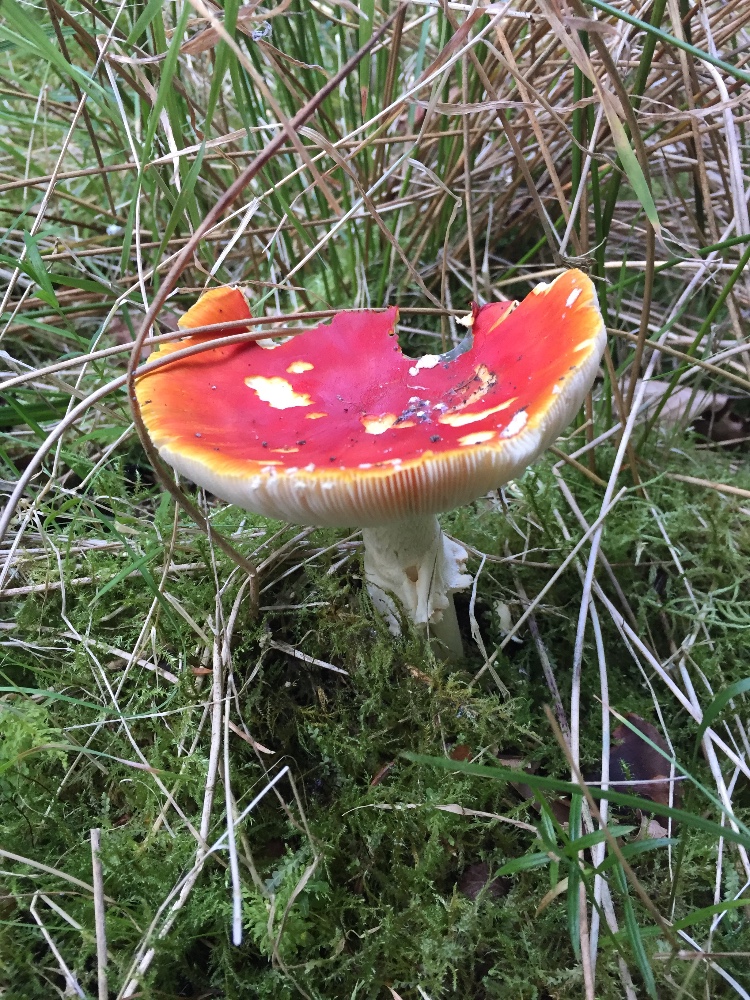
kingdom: Fungi
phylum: Basidiomycota
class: Agaricomycetes
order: Agaricales
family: Amanitaceae
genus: Amanita
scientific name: Amanita muscaria
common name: rød fluesvamp
